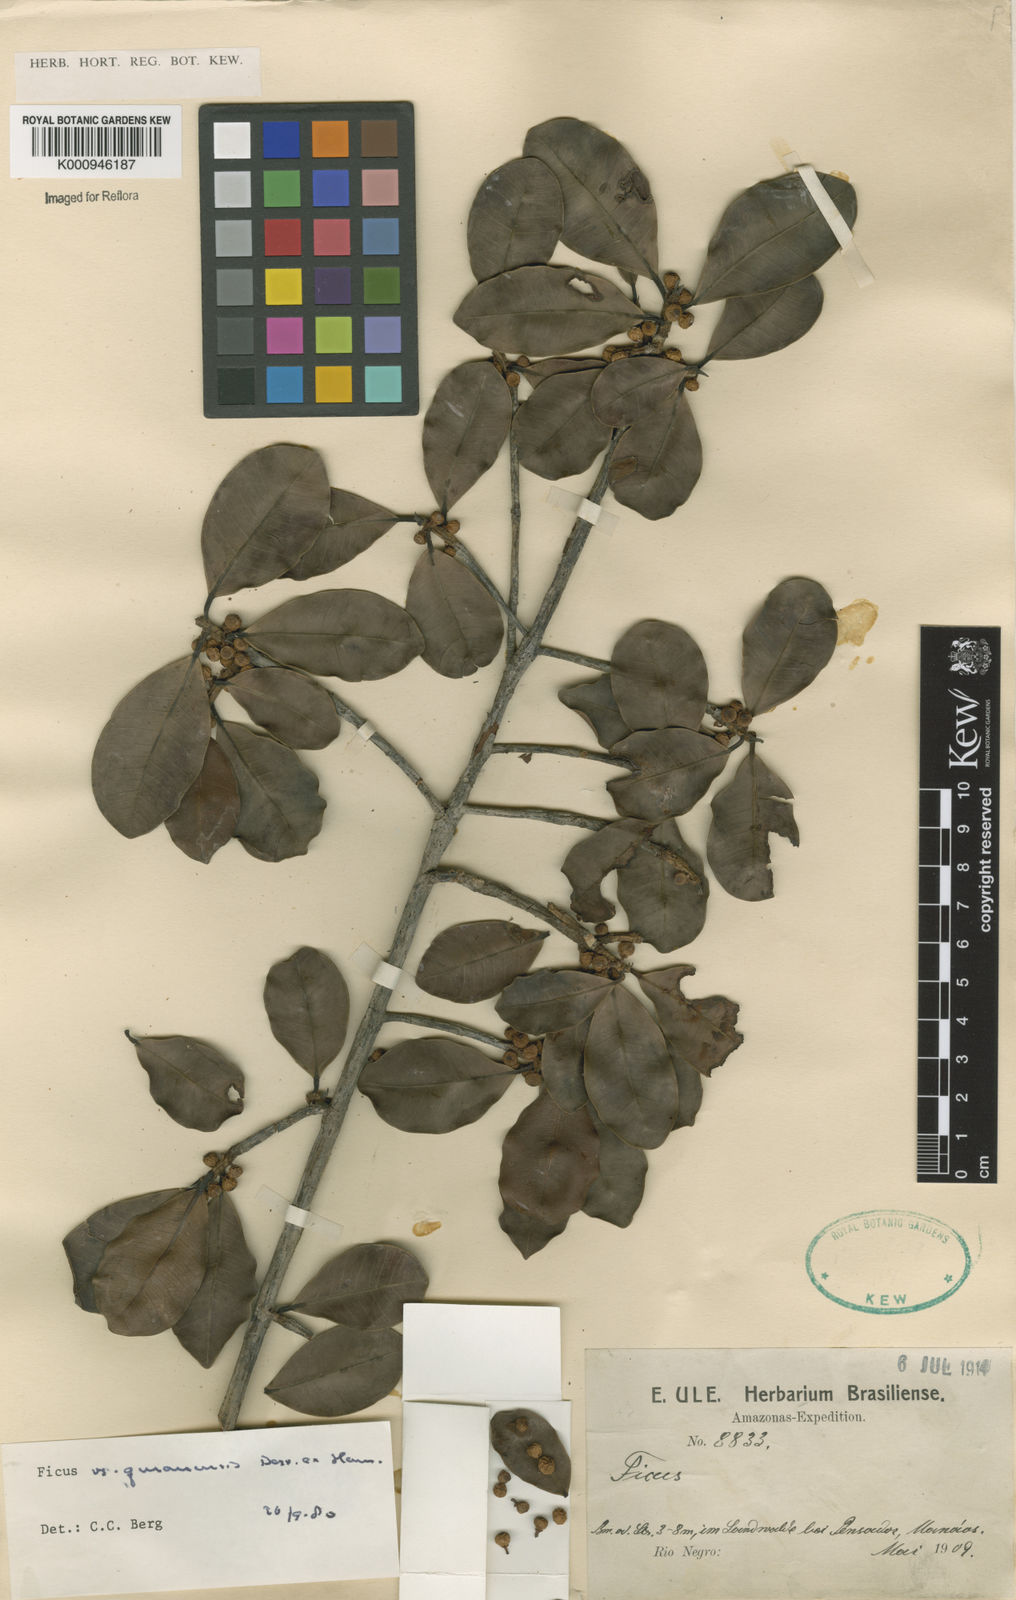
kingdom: Plantae
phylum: Tracheophyta
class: Magnoliopsida
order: Rosales
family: Moraceae
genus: Ficus
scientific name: Ficus americana
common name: Jamaican cherry fig
